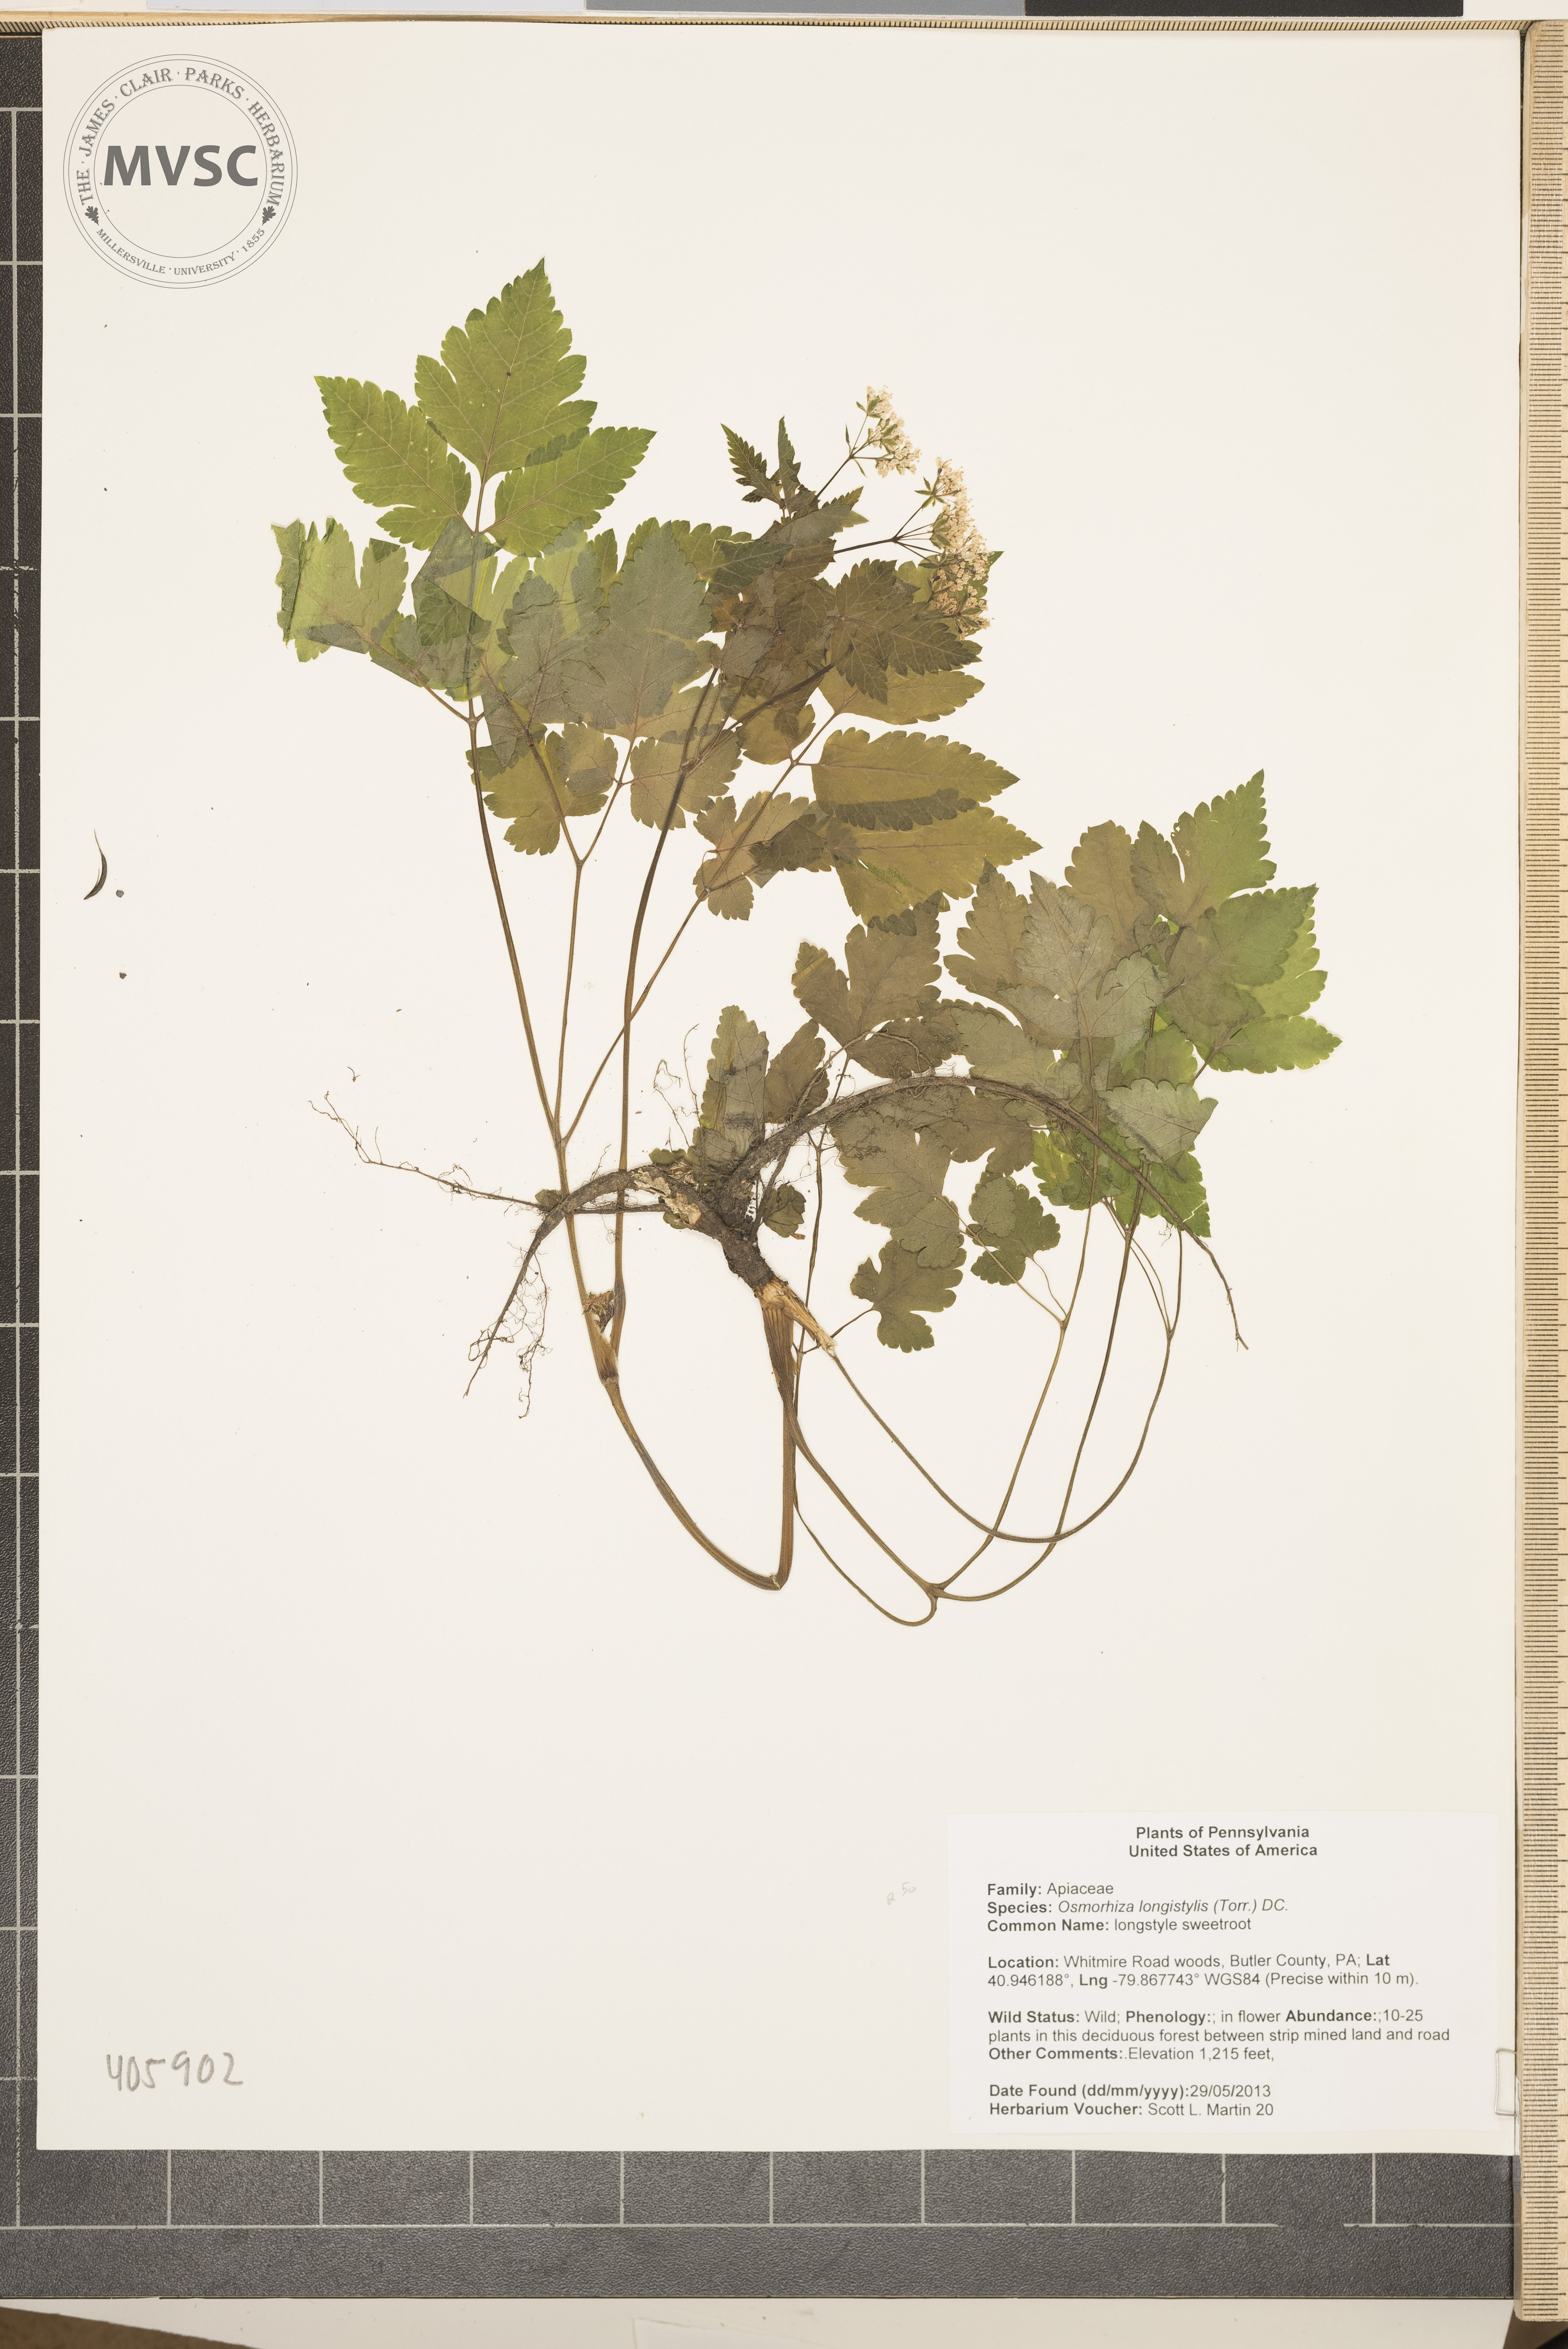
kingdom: Plantae
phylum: Tracheophyta
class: Magnoliopsida
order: Apiales
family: Apiaceae
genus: Osmorhiza
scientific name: Osmorhiza longistylis
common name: longstyle sweetroot
